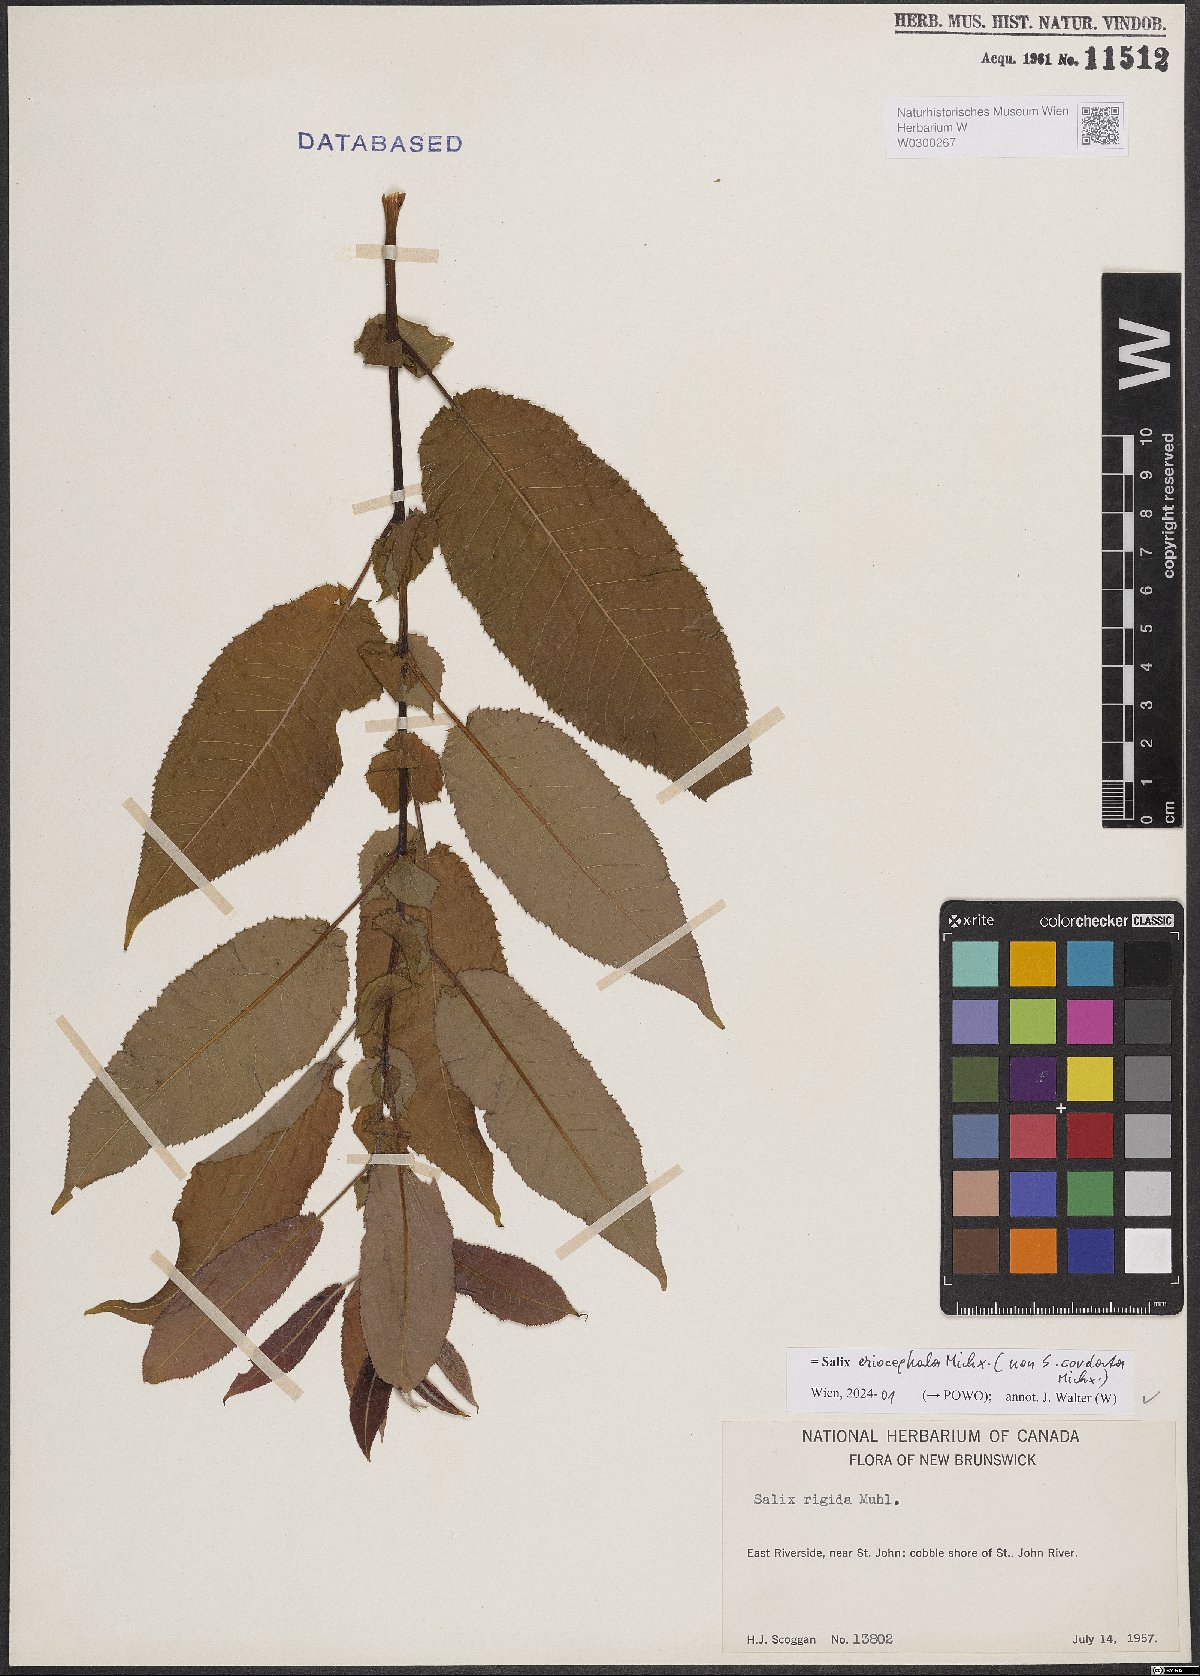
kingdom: Plantae
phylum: Tracheophyta
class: Magnoliopsida
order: Malpighiales
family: Salicaceae
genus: Salix
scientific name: Salix eriocephala
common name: Heart-leaved willow
